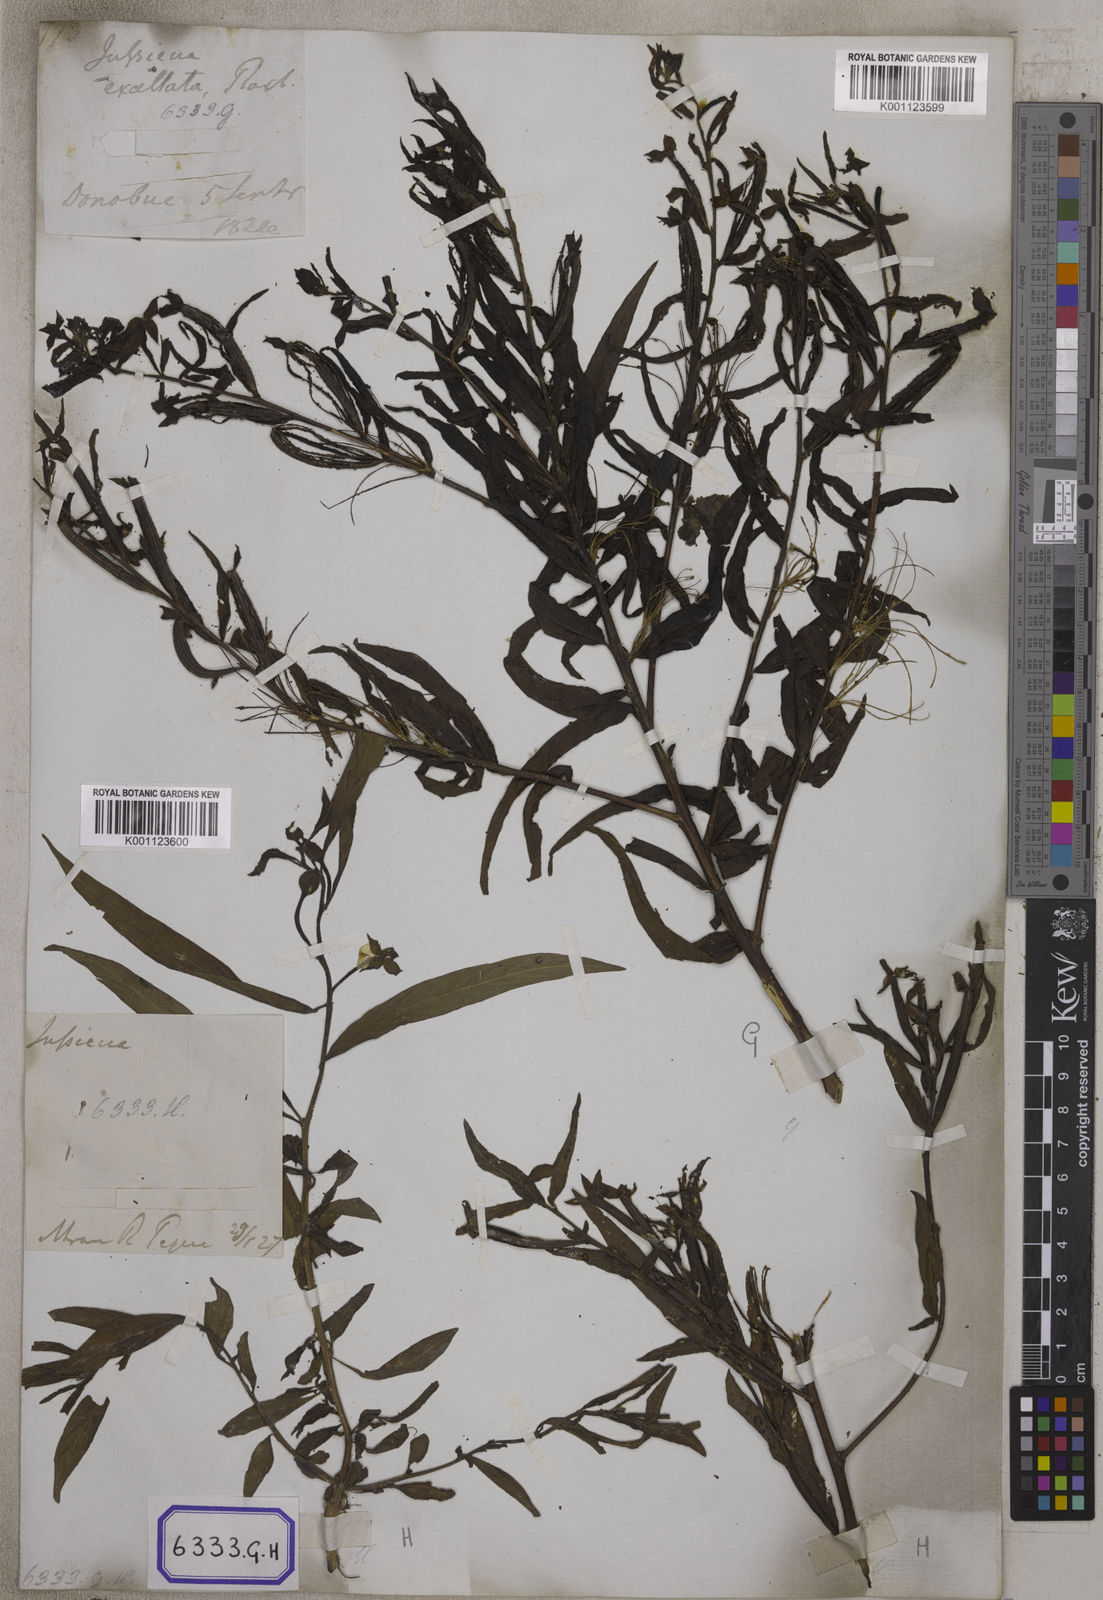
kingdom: Plantae
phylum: Tracheophyta
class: Magnoliopsida
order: Myrtales
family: Onagraceae
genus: Ludwigia
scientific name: Ludwigia octovalvis
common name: Water-primrose
